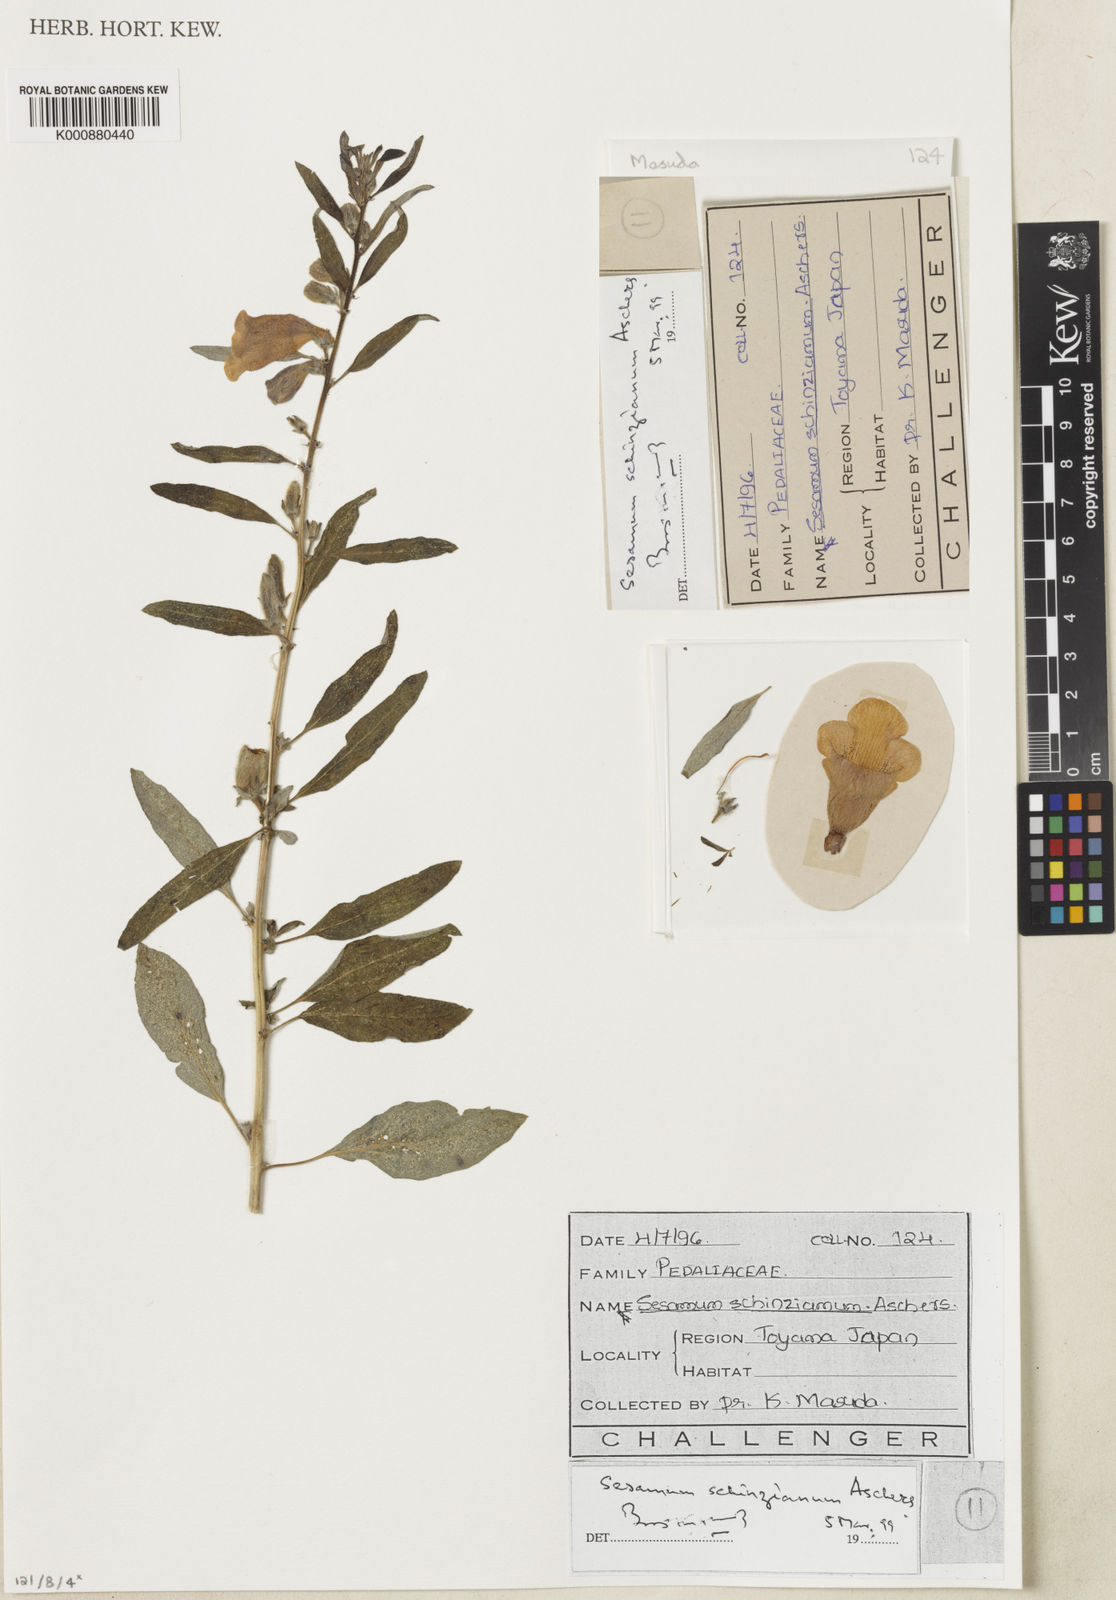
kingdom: Plantae
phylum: Tracheophyta
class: Magnoliopsida
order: Lamiales
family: Pedaliaceae
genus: Sesamum
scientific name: Sesamum radiatum
